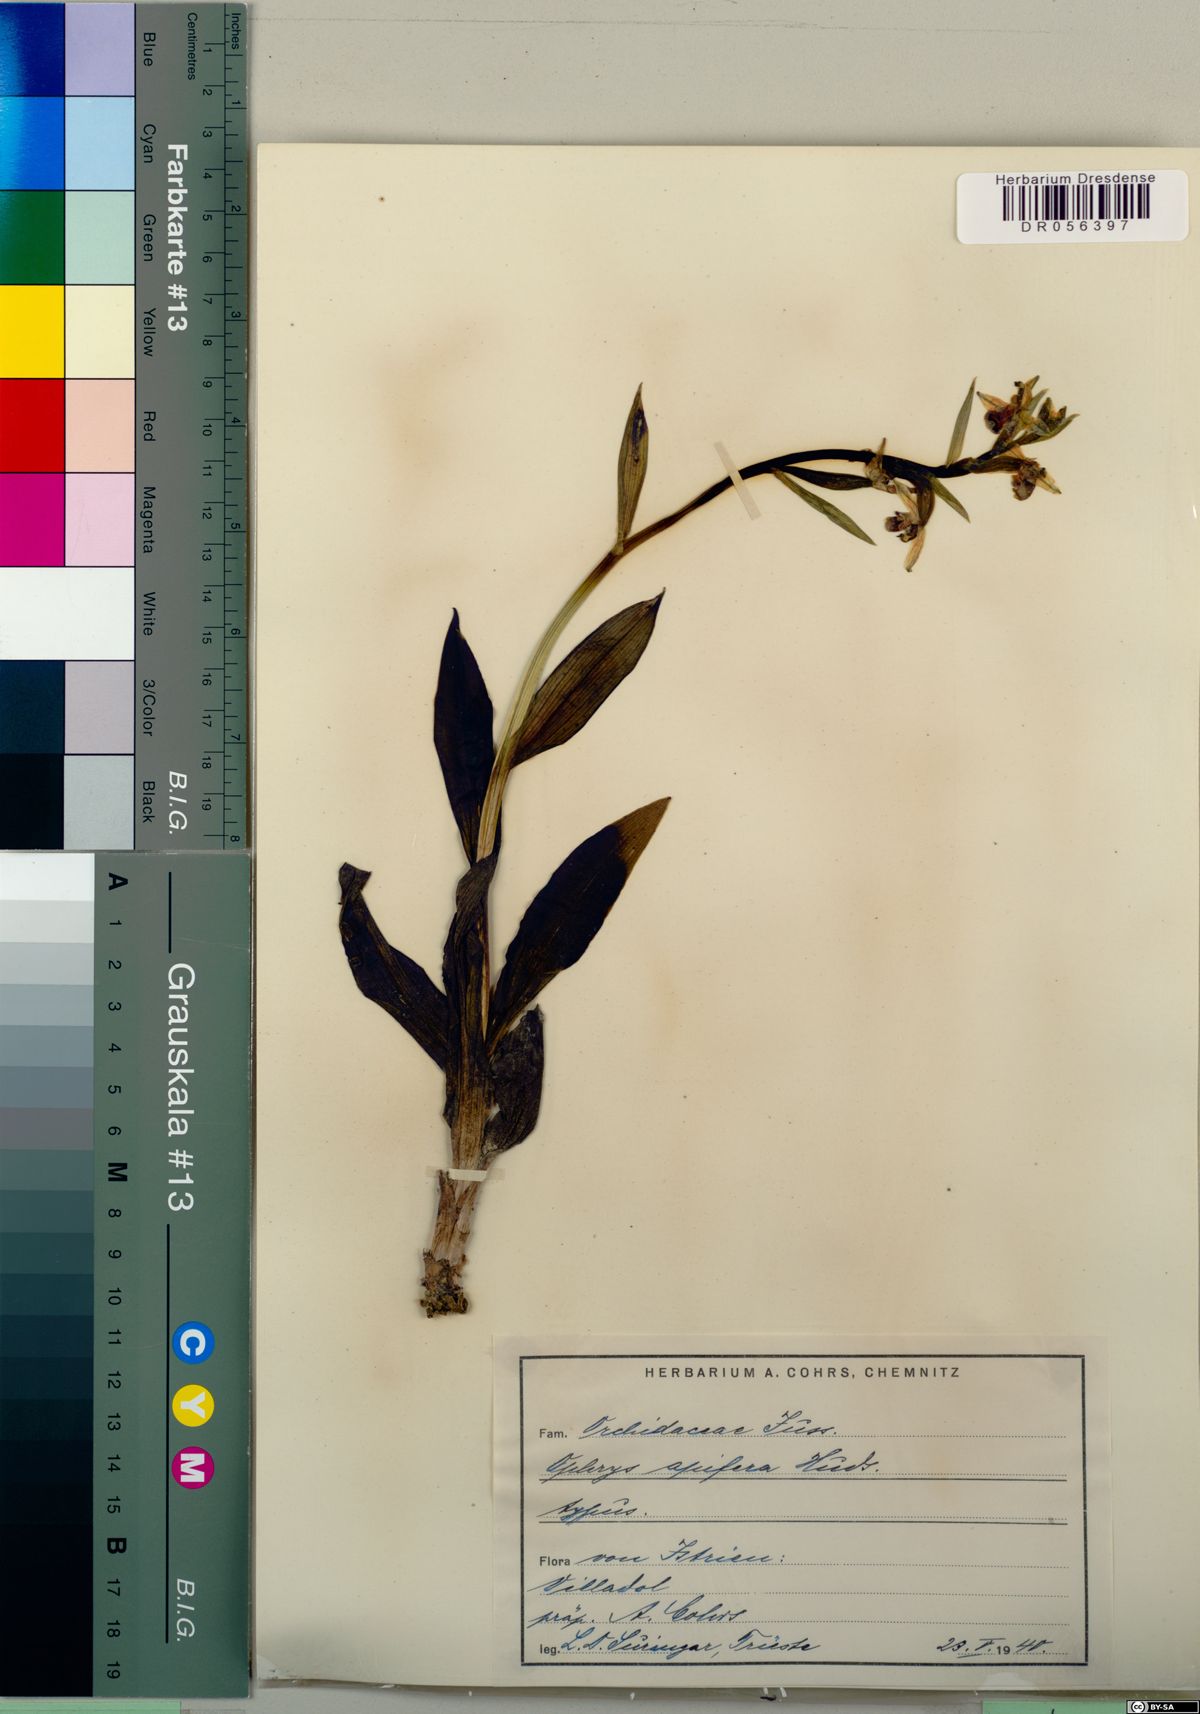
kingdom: Plantae
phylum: Tracheophyta
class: Liliopsida
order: Asparagales
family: Orchidaceae
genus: Ophrys
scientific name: Ophrys apifera
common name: Bee orchid
